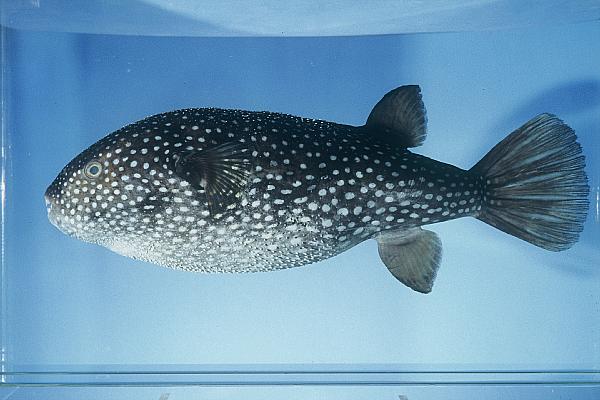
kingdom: Animalia
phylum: Chordata
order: Tetraodontiformes
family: Tetraodontidae
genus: Arothron
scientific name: Arothron firmamentum
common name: Starry toado
